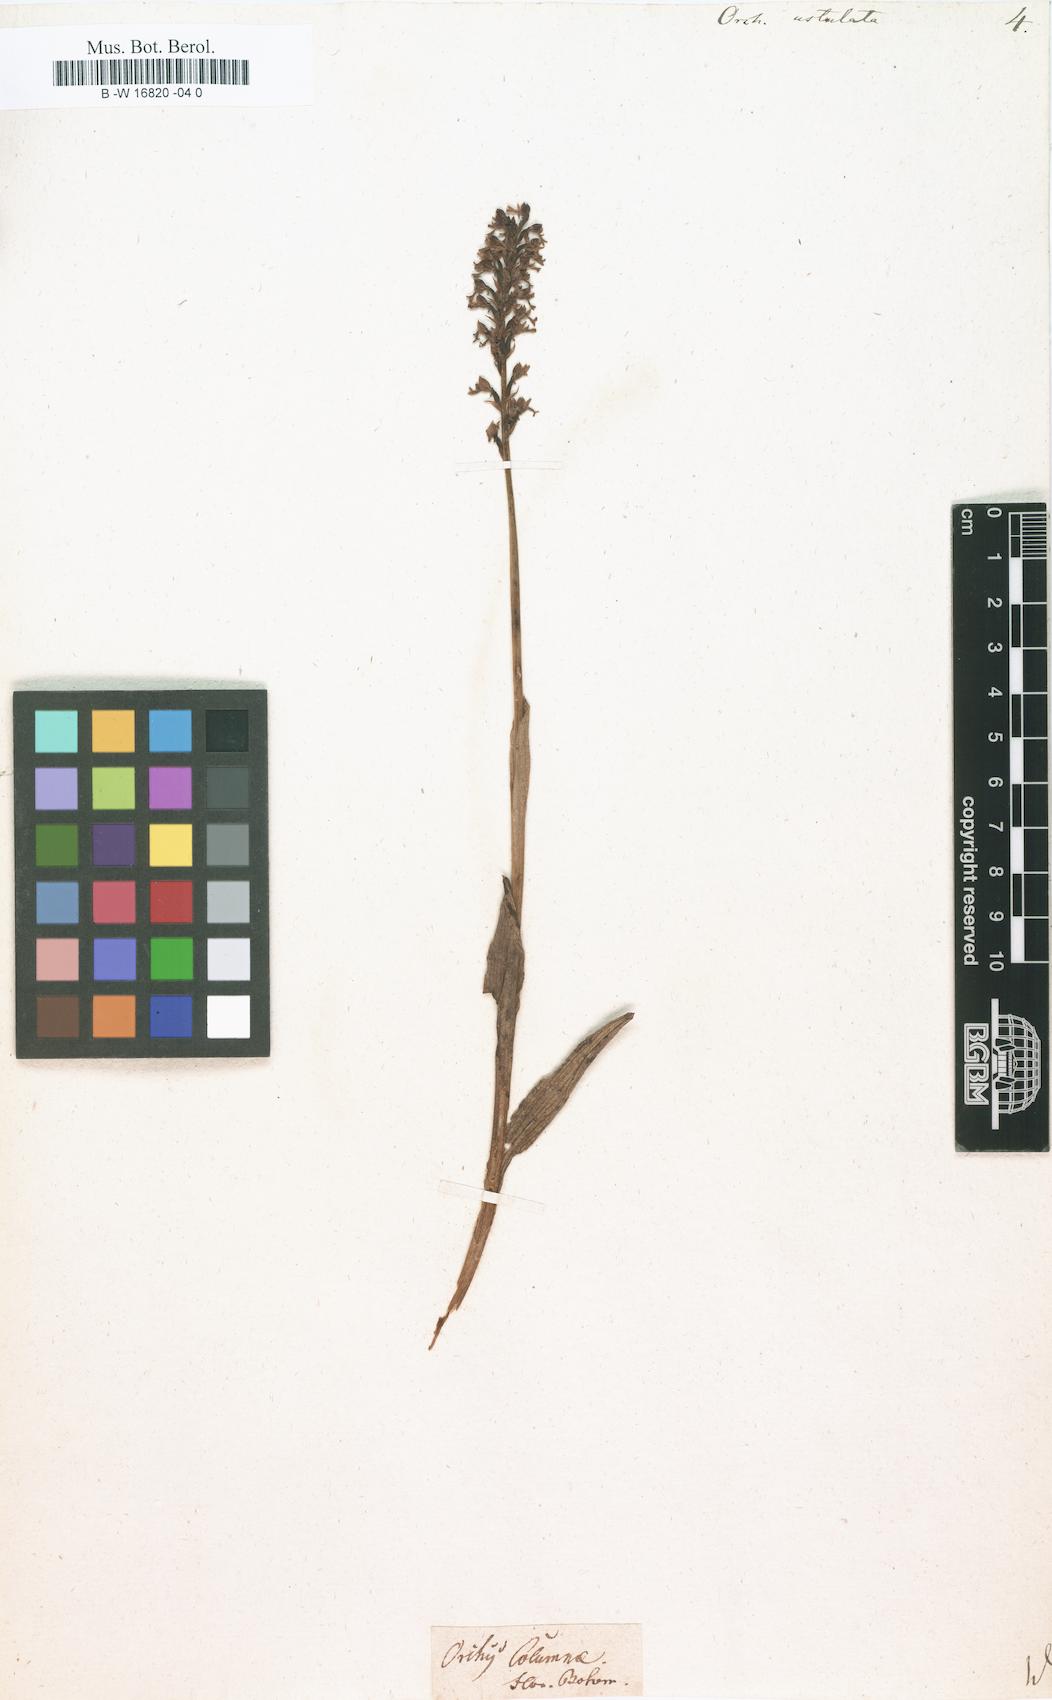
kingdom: Plantae
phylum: Tracheophyta
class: Liliopsida
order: Asparagales
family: Orchidaceae
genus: Neotinea
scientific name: Neotinea ustulata
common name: Burnt orchid
